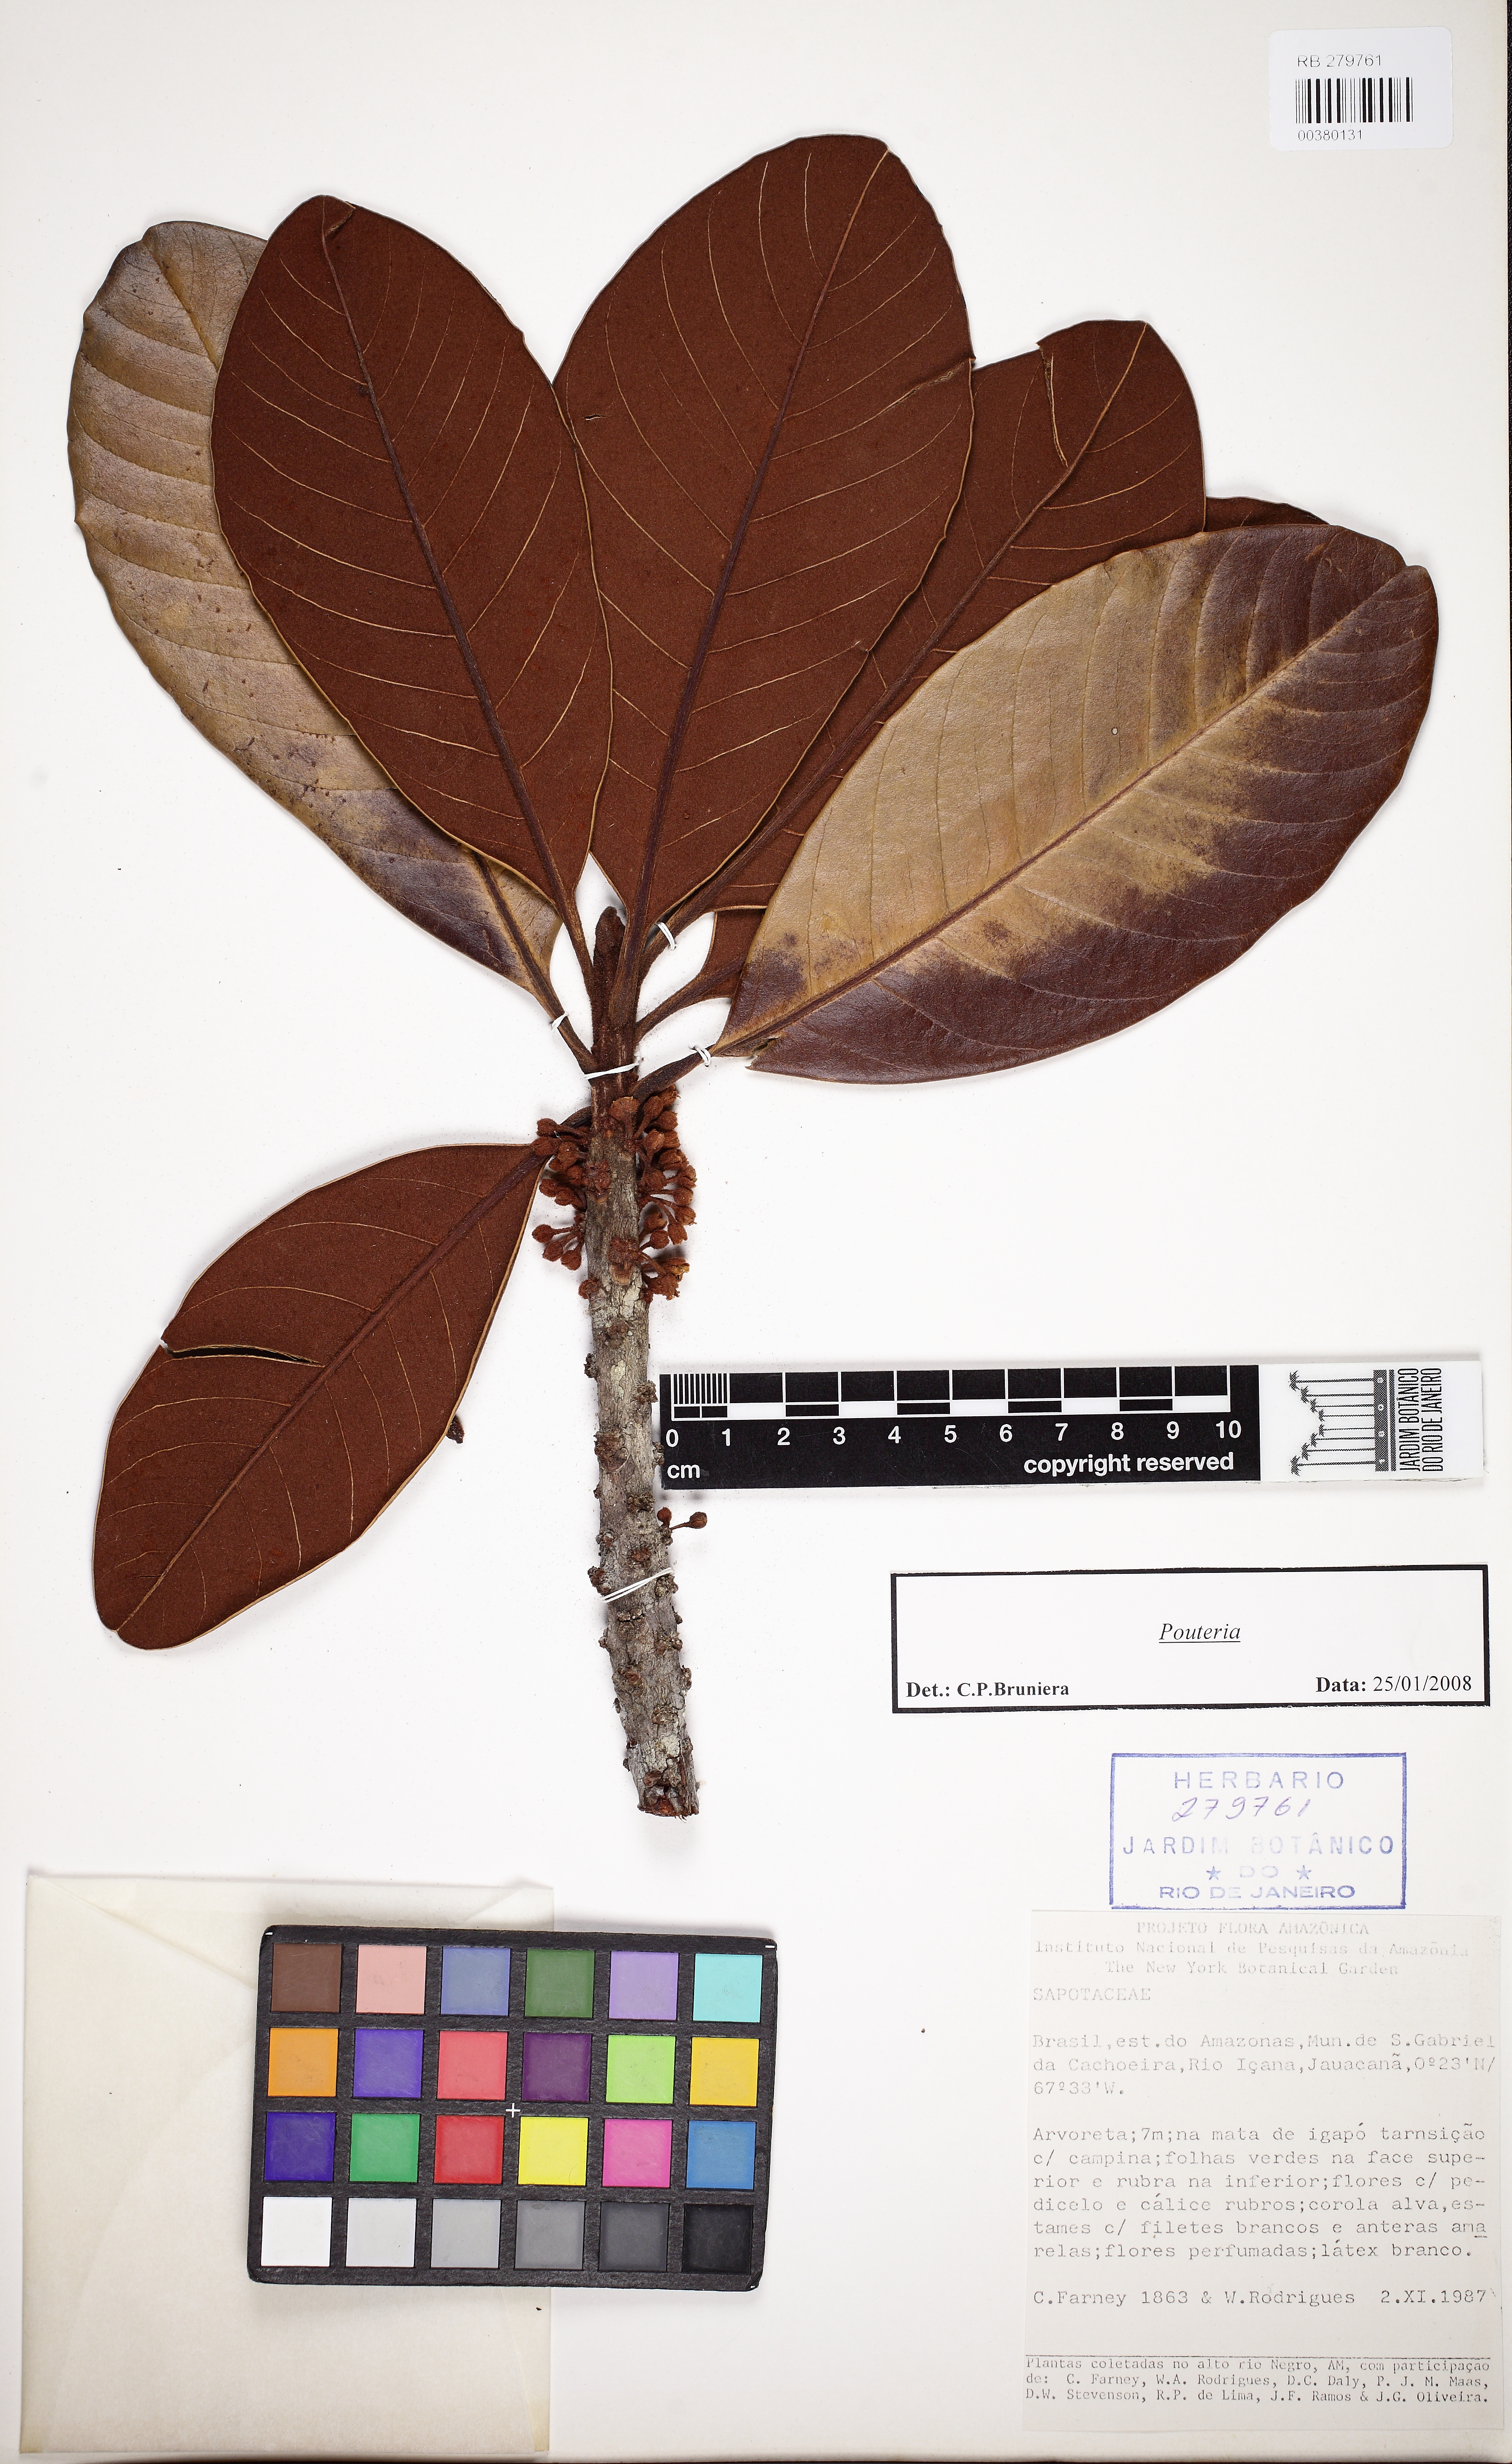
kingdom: Plantae
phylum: Tracheophyta
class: Magnoliopsida
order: Ericales
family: Sapotaceae
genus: Chrysophyllum
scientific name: Chrysophyllum eximium
